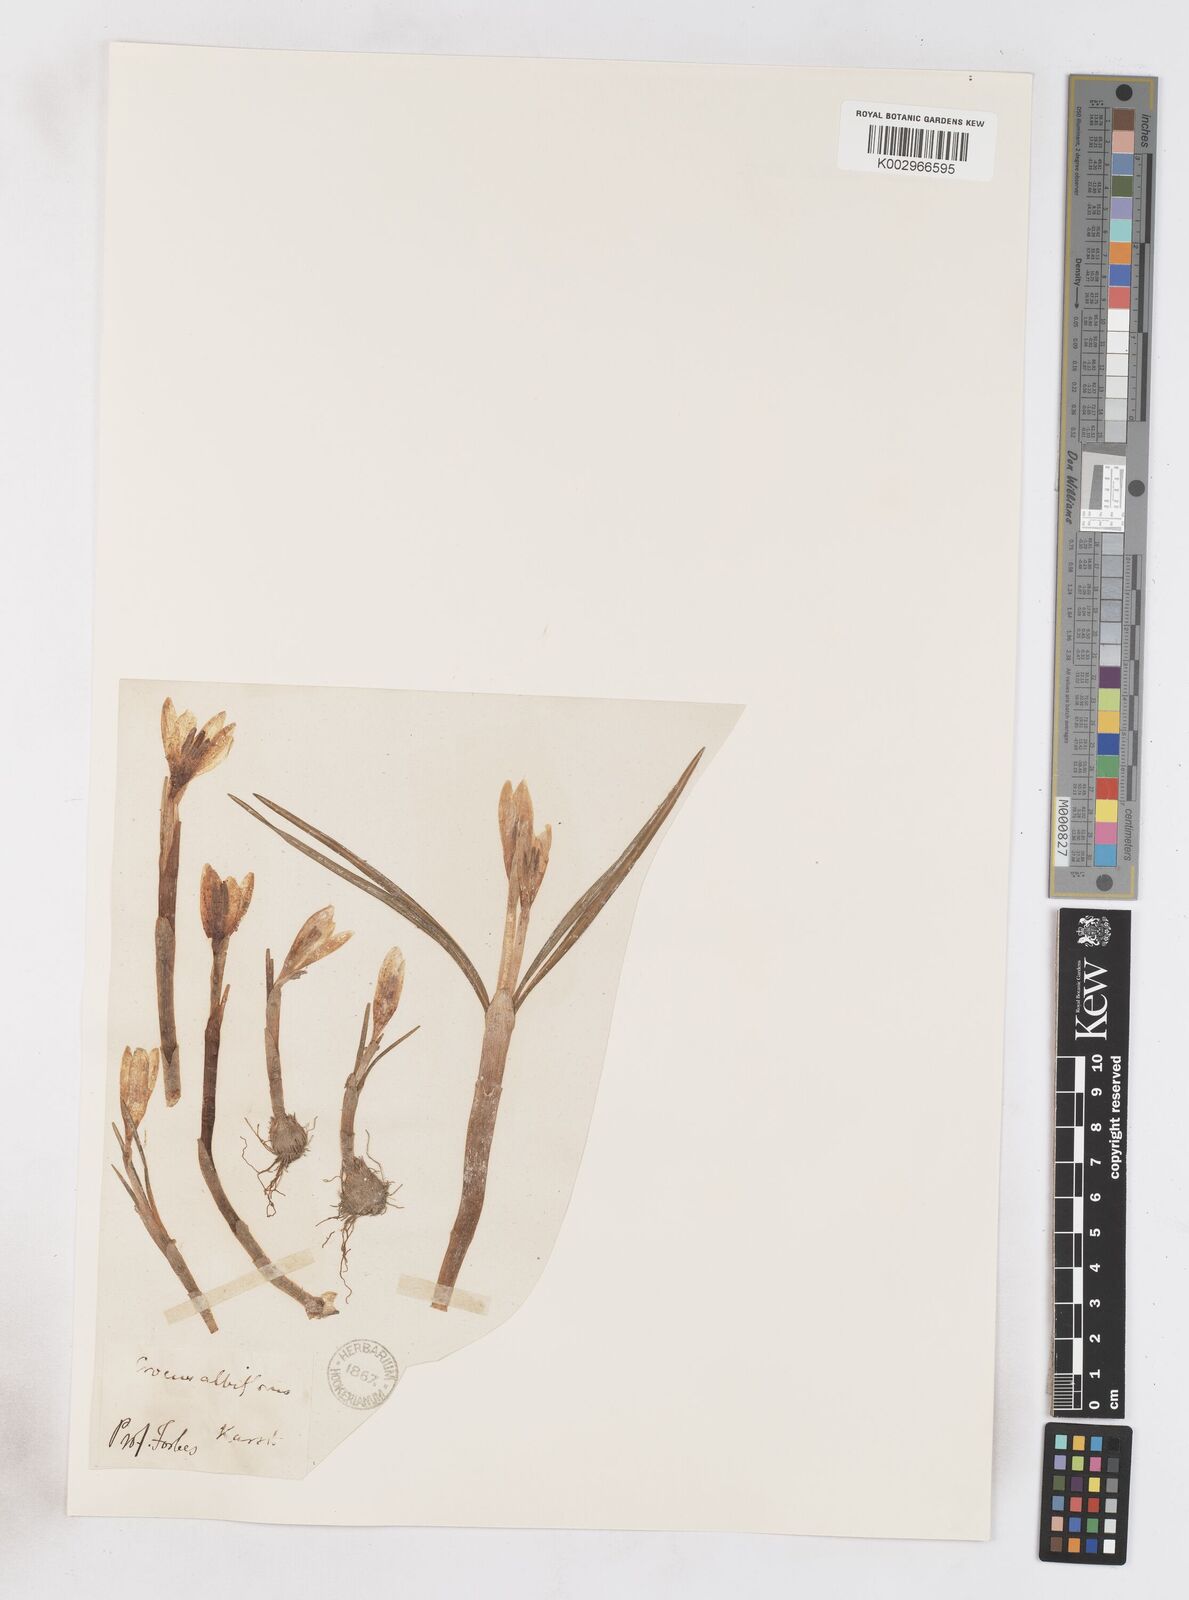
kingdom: Plantae
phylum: Tracheophyta
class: Liliopsida
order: Asparagales
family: Iridaceae
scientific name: Iridaceae
